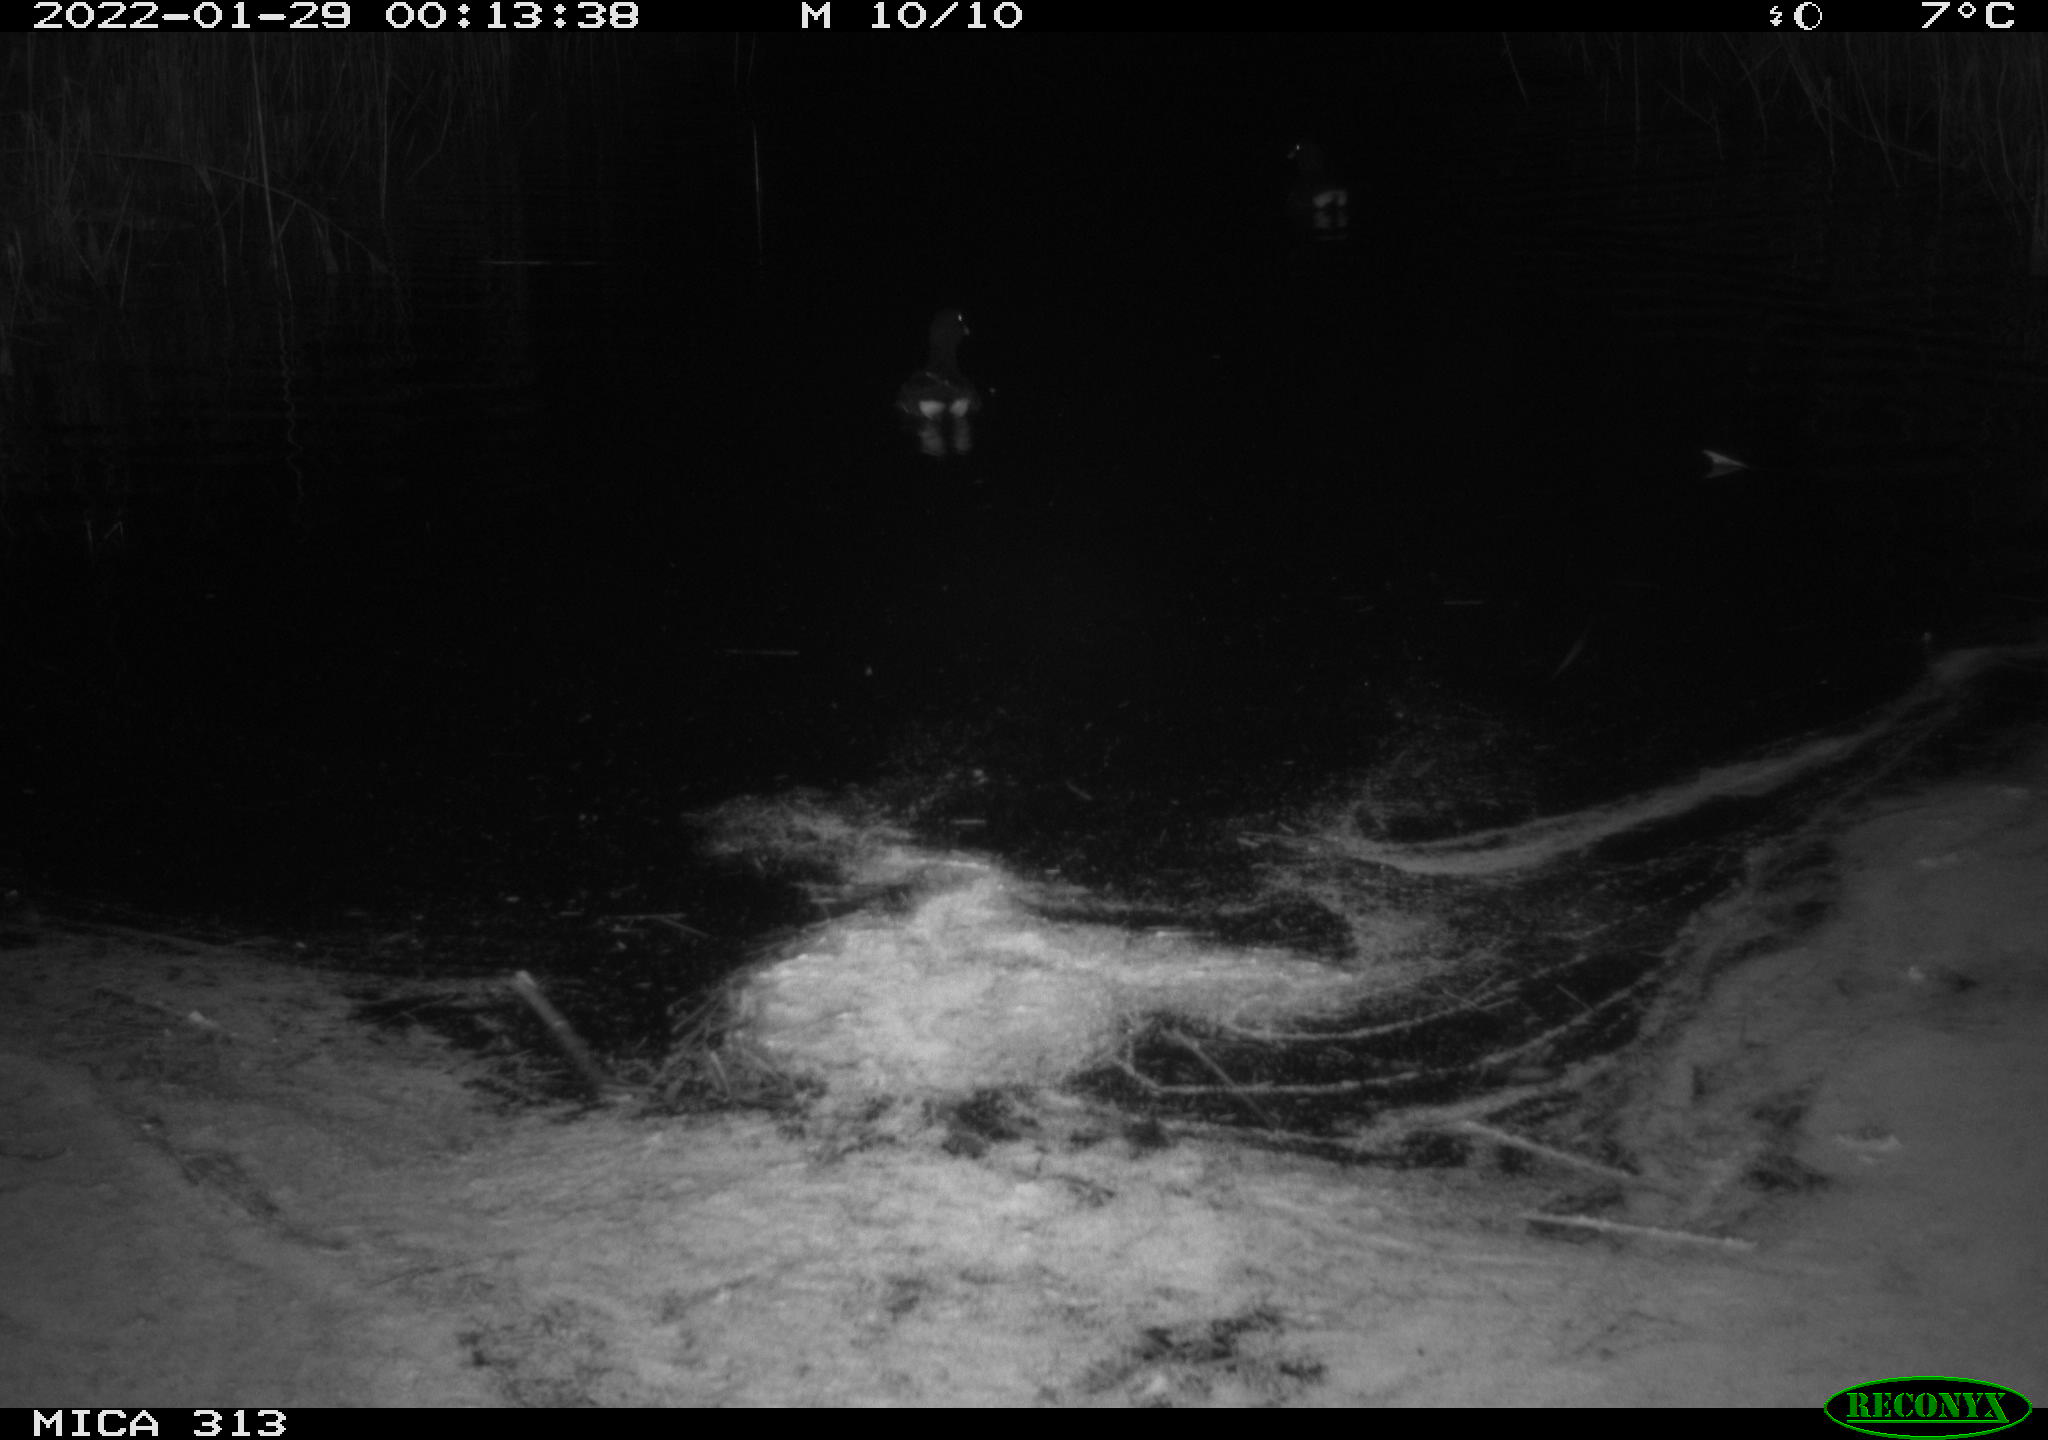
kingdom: Animalia
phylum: Chordata
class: Aves
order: Gruiformes
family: Rallidae
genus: Gallinula
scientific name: Gallinula chloropus
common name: Common moorhen
